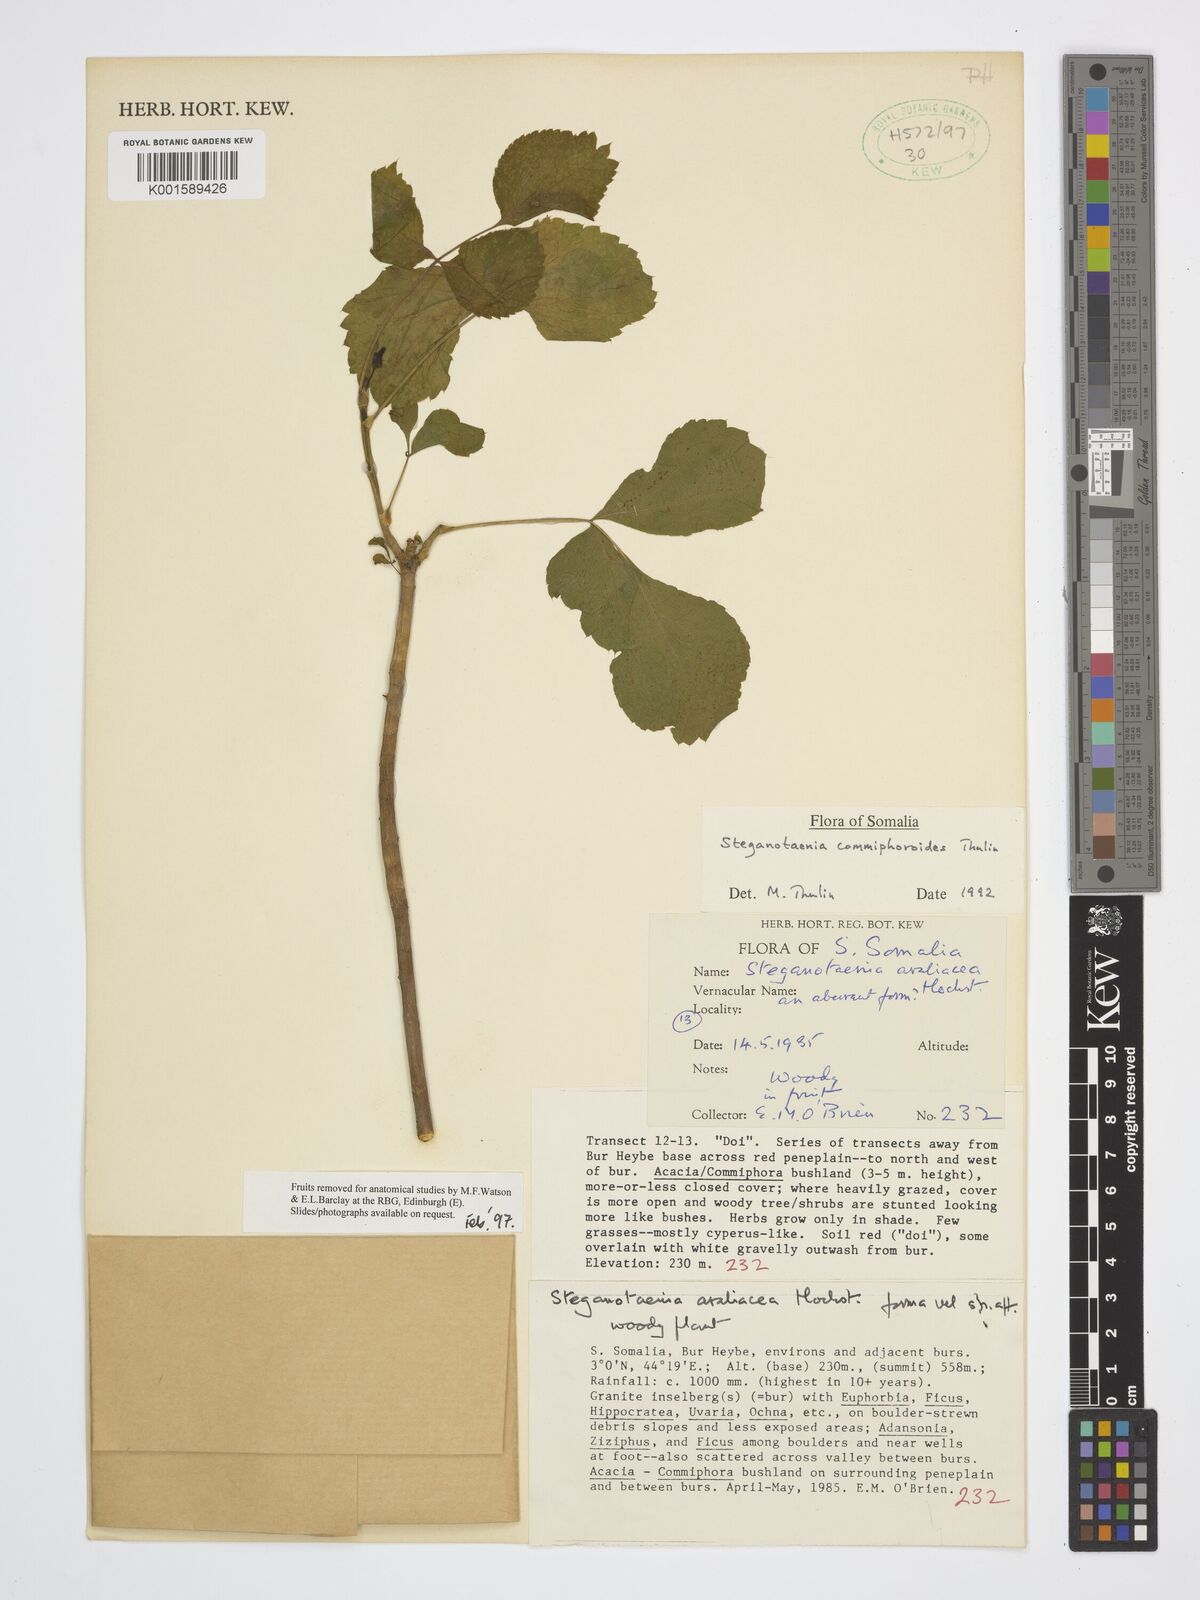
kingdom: Plantae
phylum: Tracheophyta
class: Magnoliopsida
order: Apiales
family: Apiaceae
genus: Steganotaenia
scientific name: Steganotaenia commiphoroides
